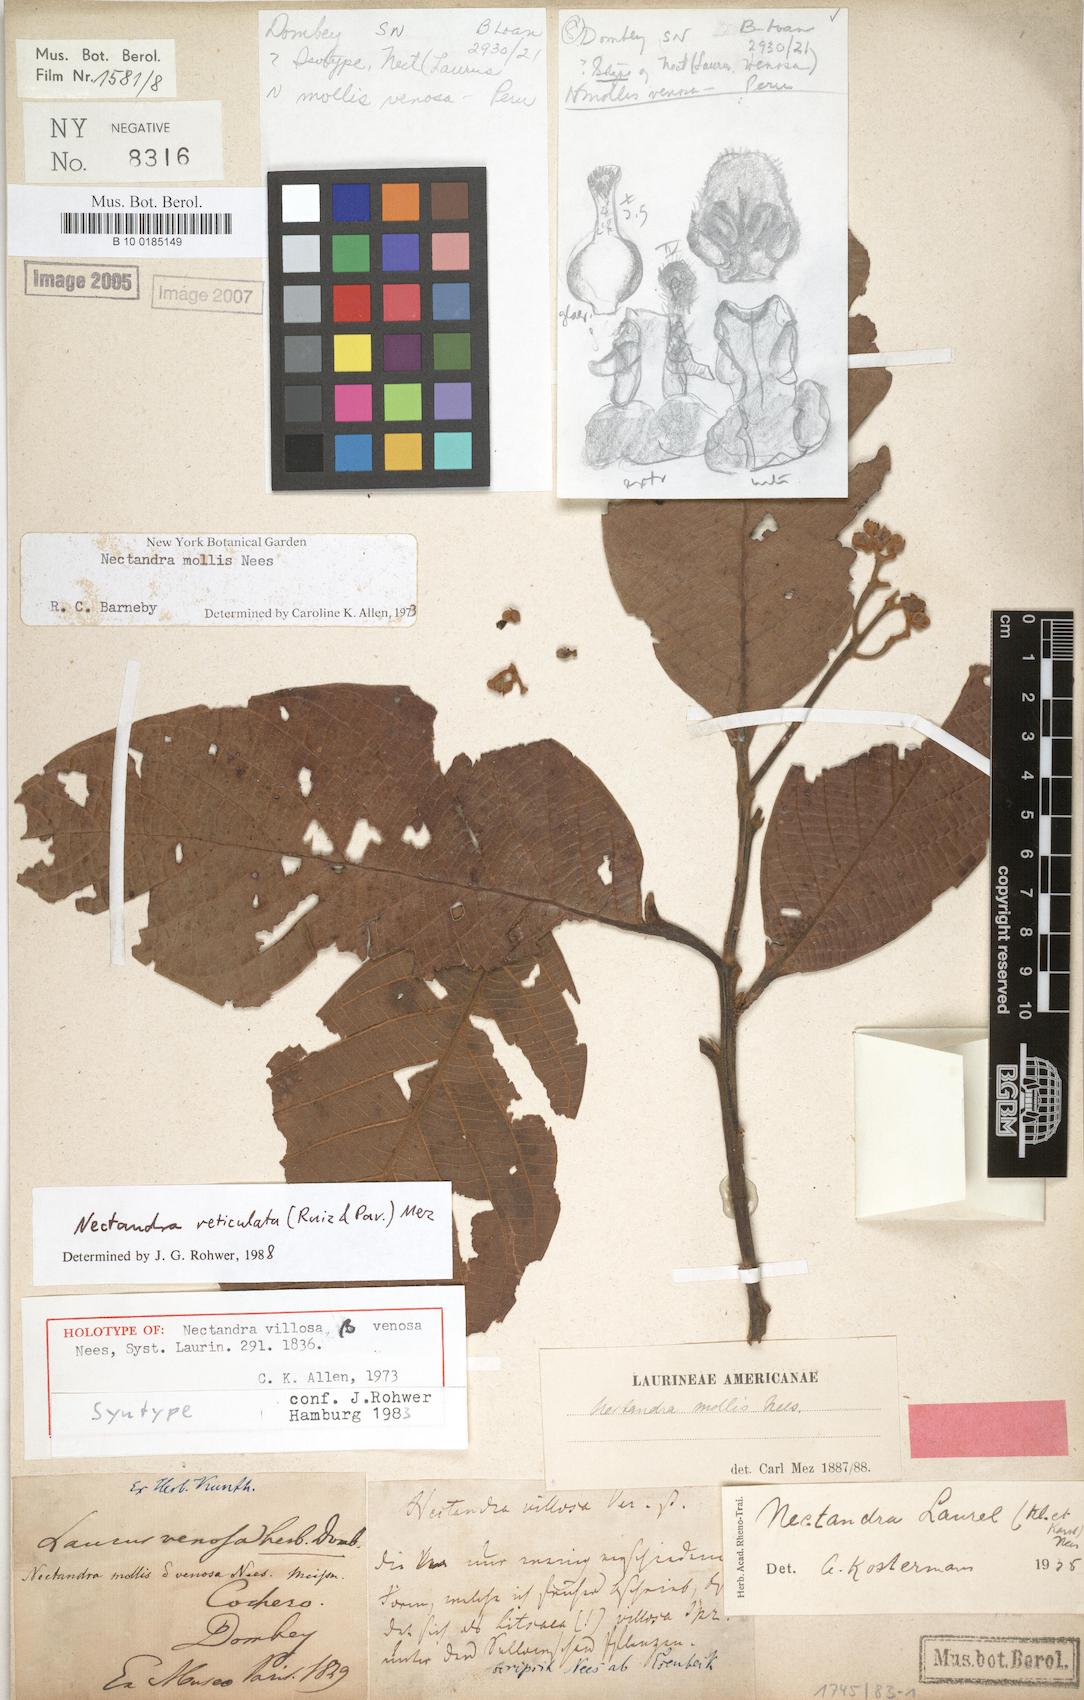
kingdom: Plantae
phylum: Tracheophyta
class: Magnoliopsida
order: Laurales
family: Lauraceae
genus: Nectandra
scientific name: Nectandra villosa
